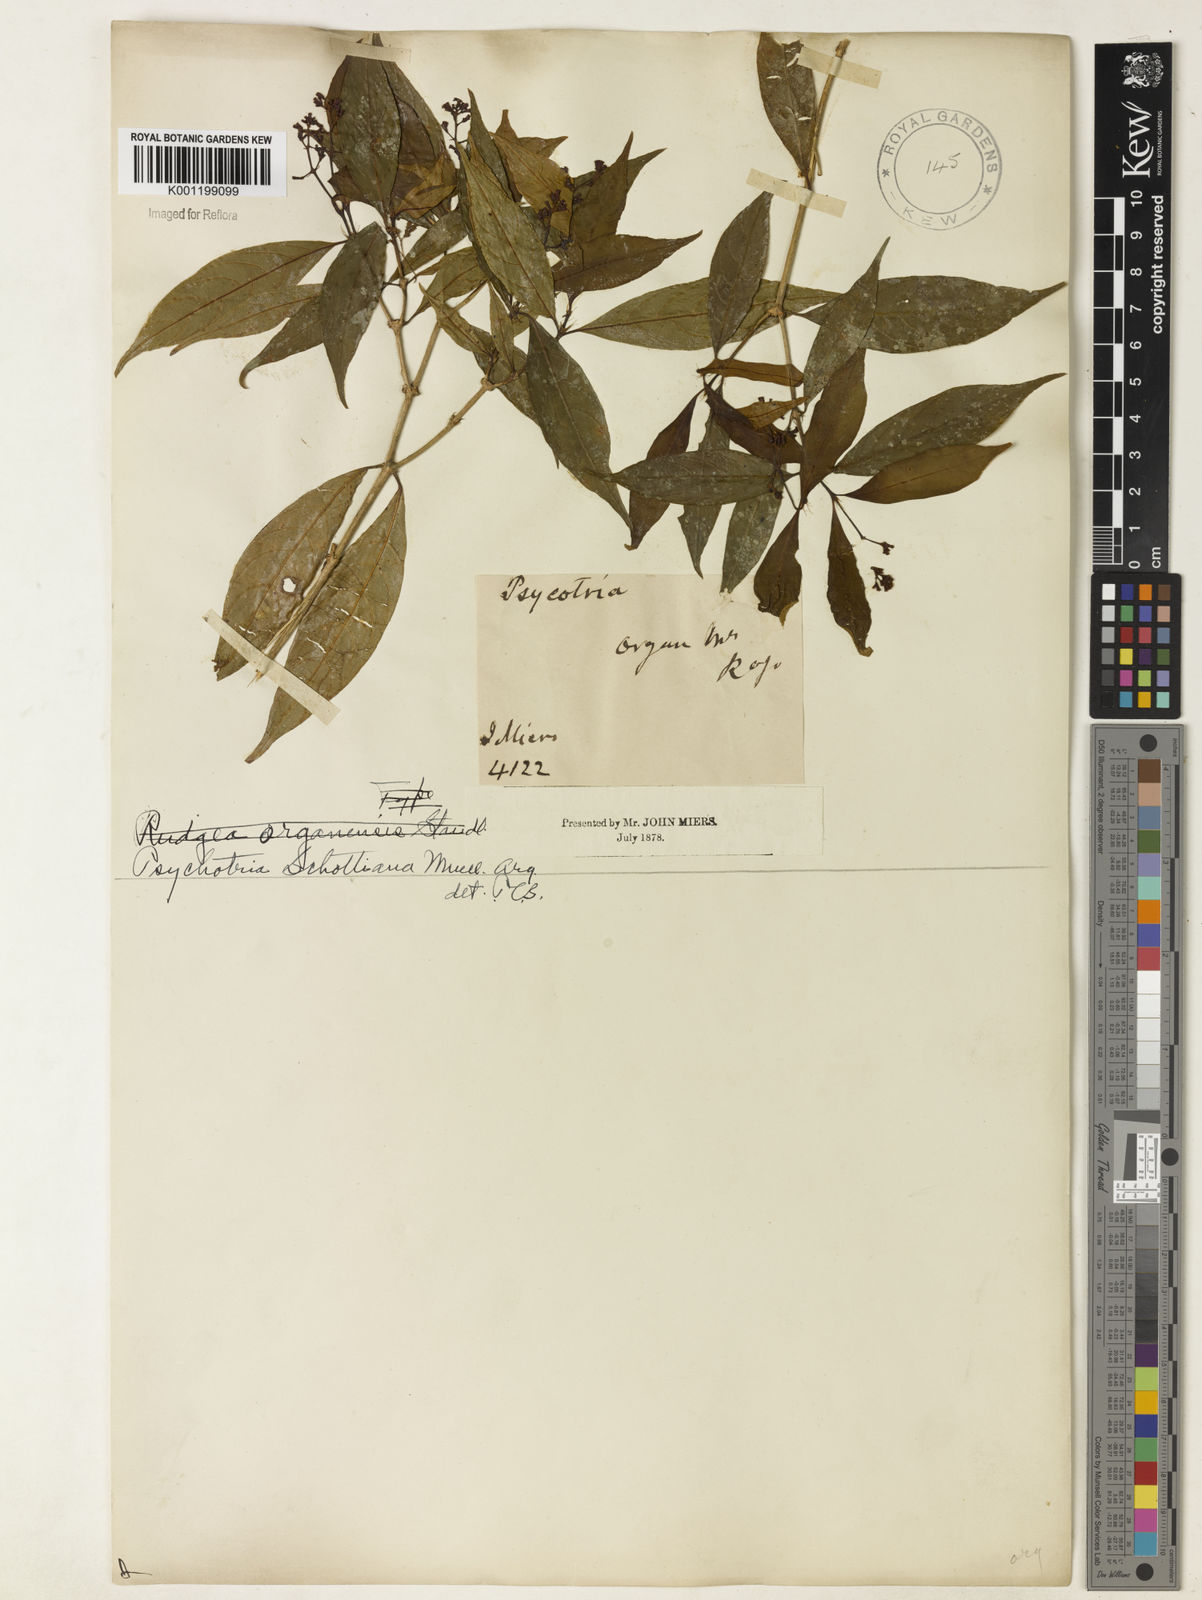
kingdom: Plantae
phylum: Tracheophyta
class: Magnoliopsida
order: Gentianales
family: Rubiaceae
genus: Psychotria
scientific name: Psychotria
